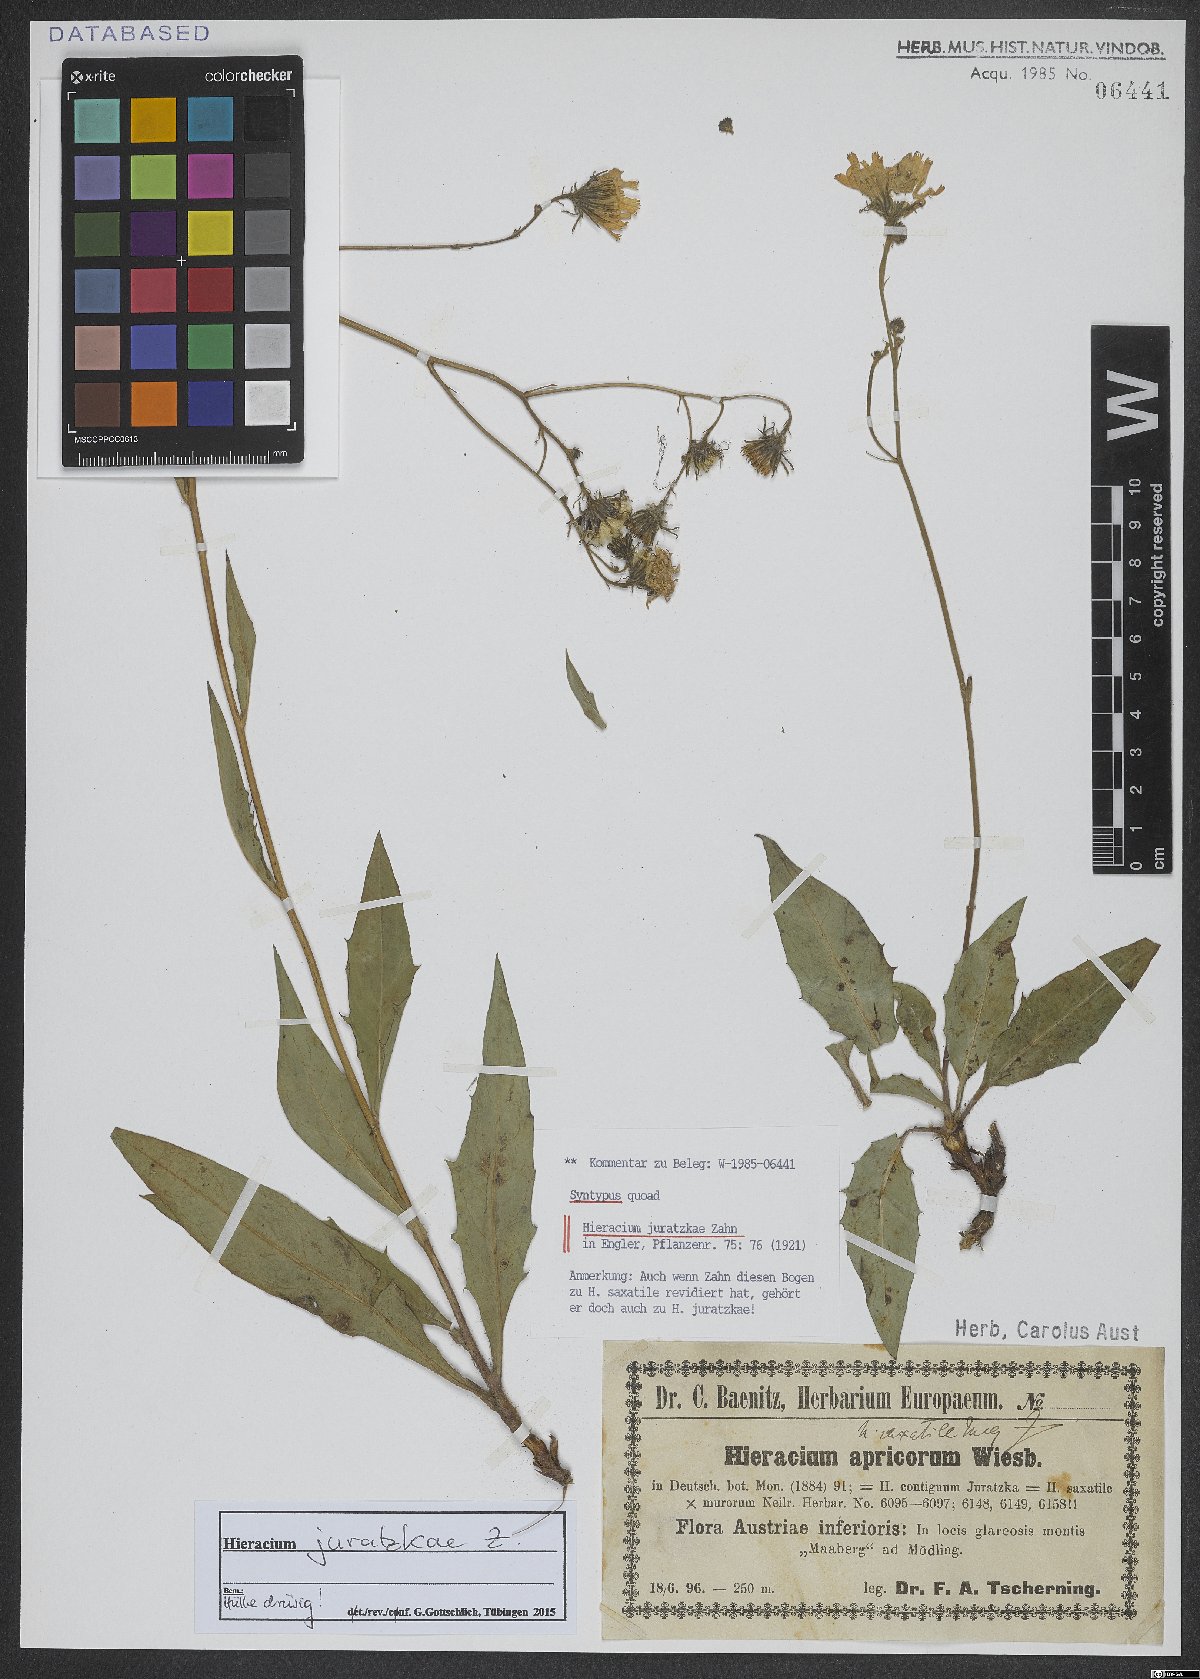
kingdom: Plantae
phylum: Tracheophyta
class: Magnoliopsida
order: Asterales
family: Asteraceae
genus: Hieracium
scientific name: Hieracium juratzkae
